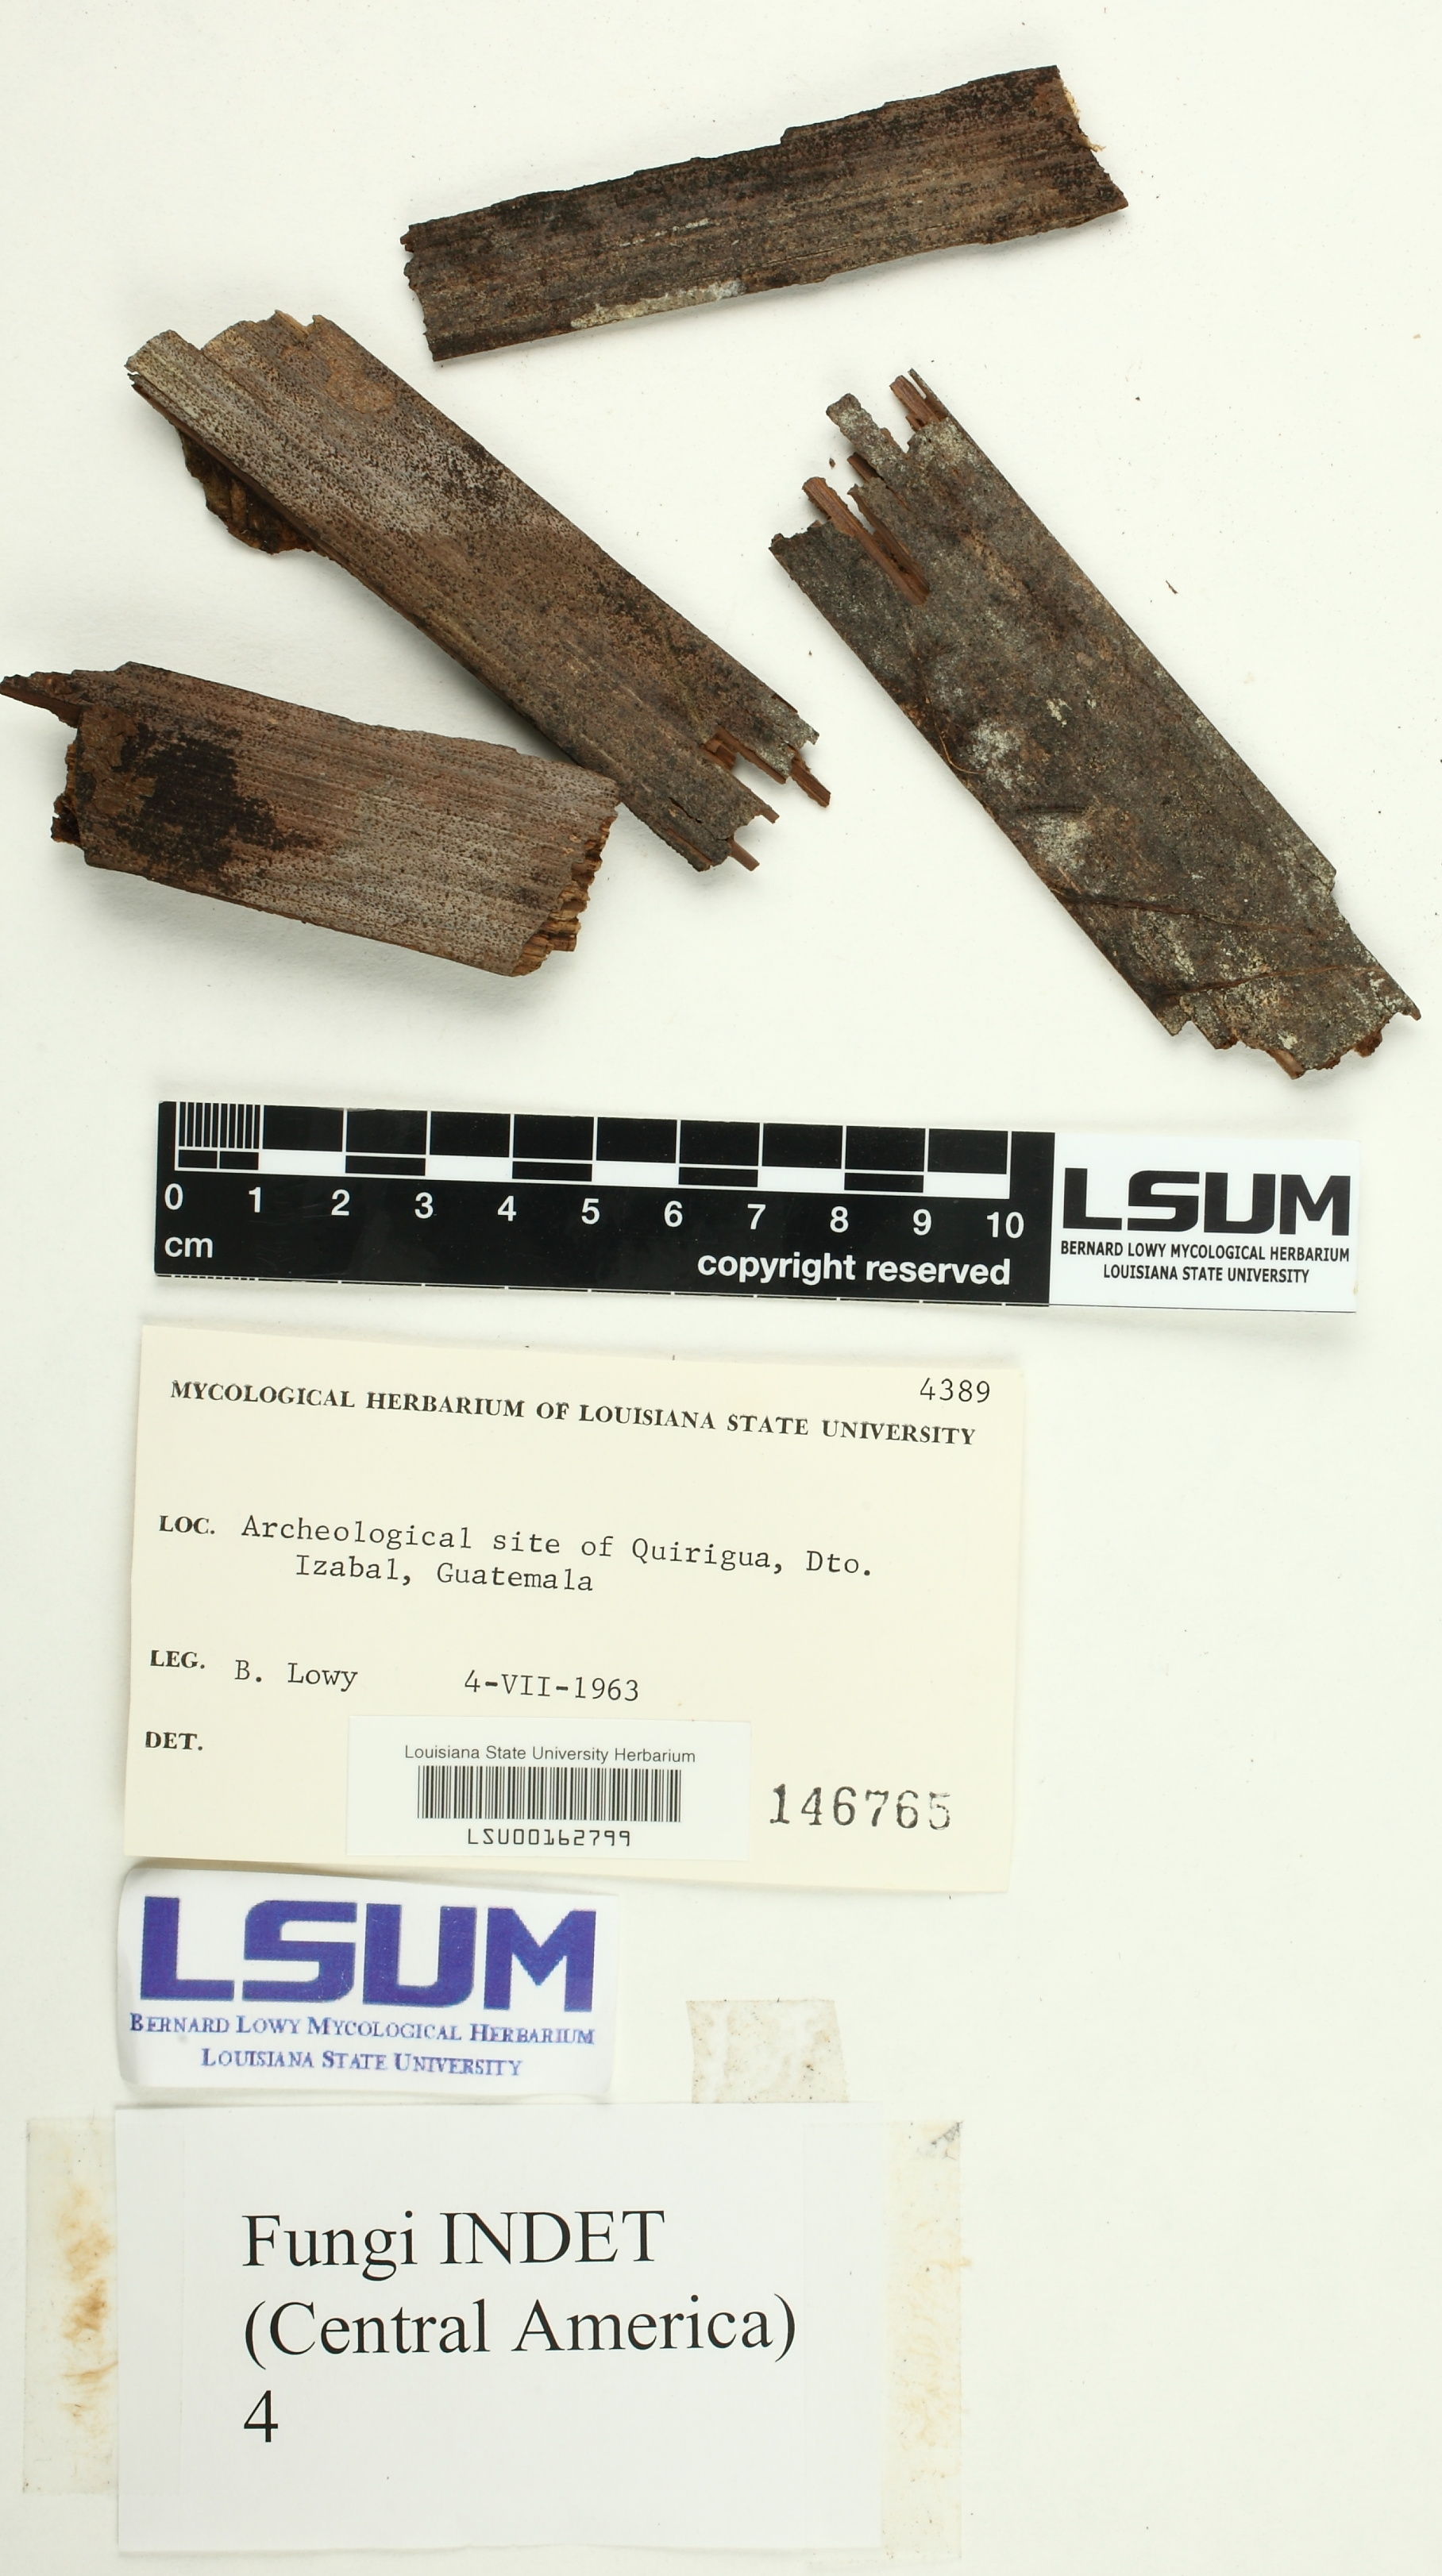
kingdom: Fungi
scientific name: Fungi
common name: Fungi
